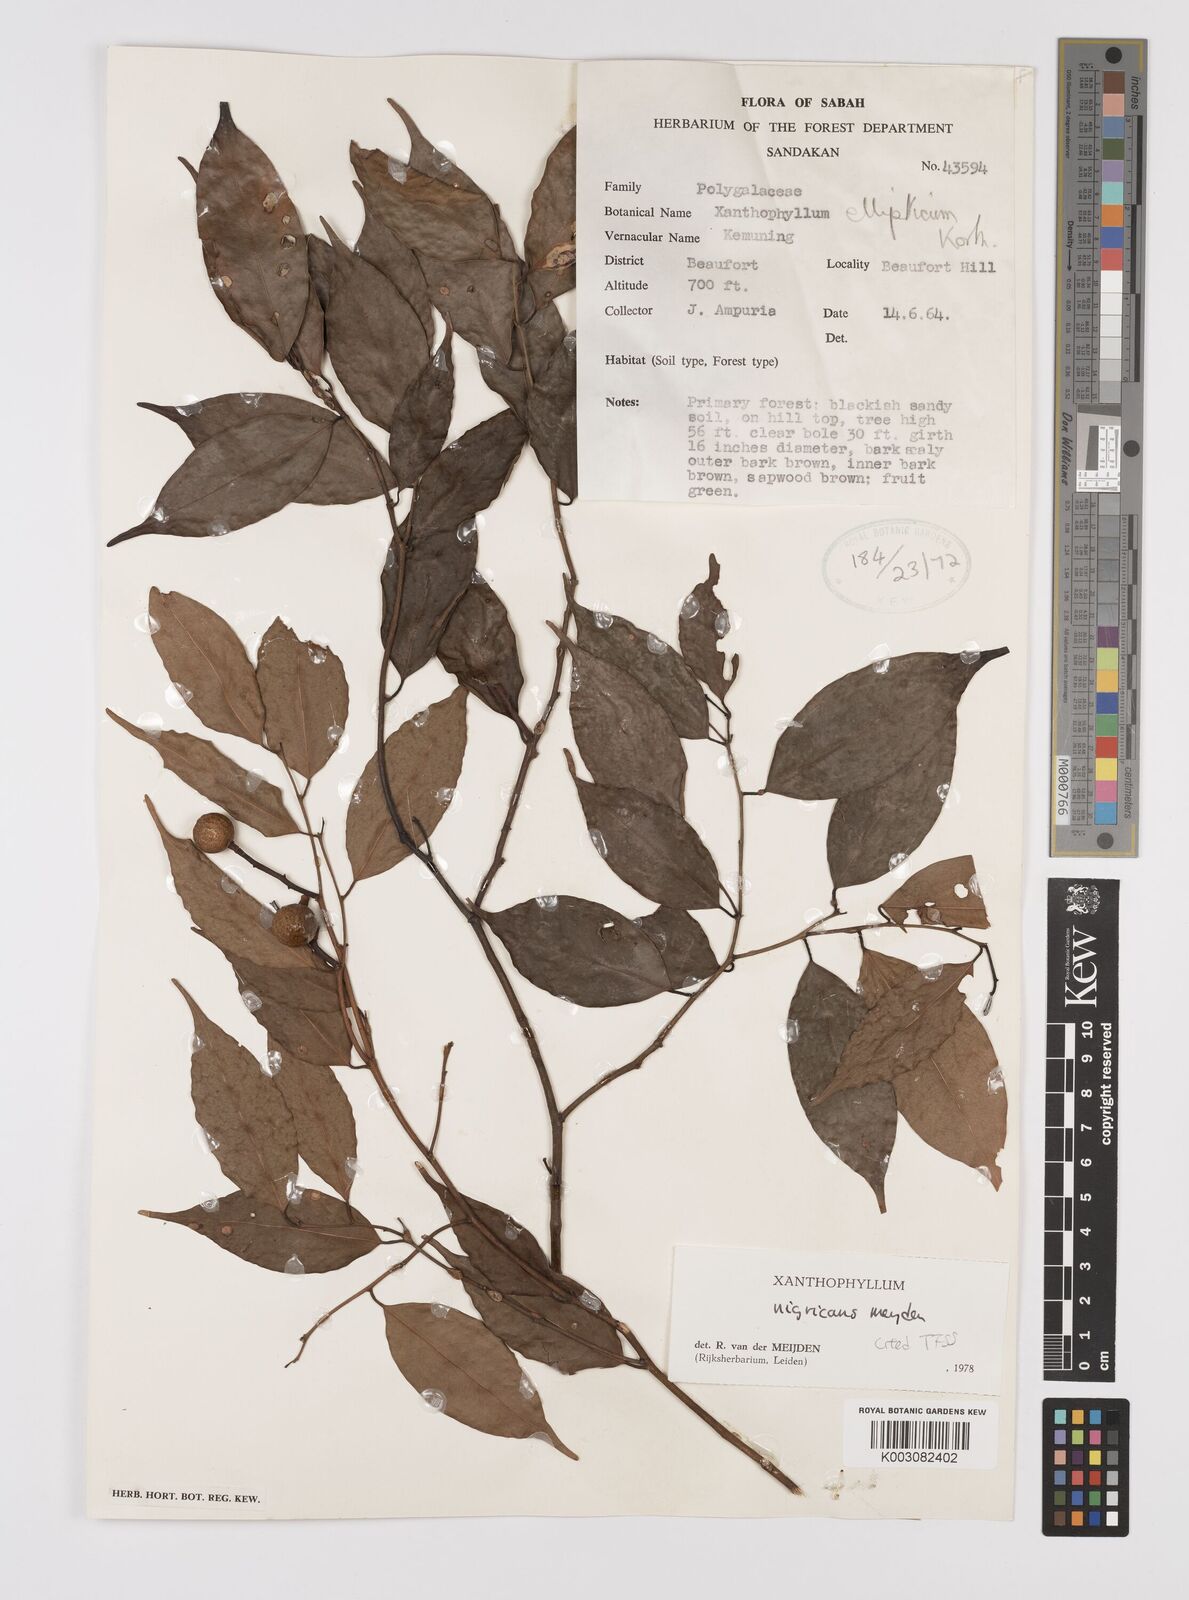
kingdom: Plantae
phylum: Tracheophyta
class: Magnoliopsida
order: Fabales
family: Polygalaceae
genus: Xanthophyllum
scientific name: Xanthophyllum nigricans
